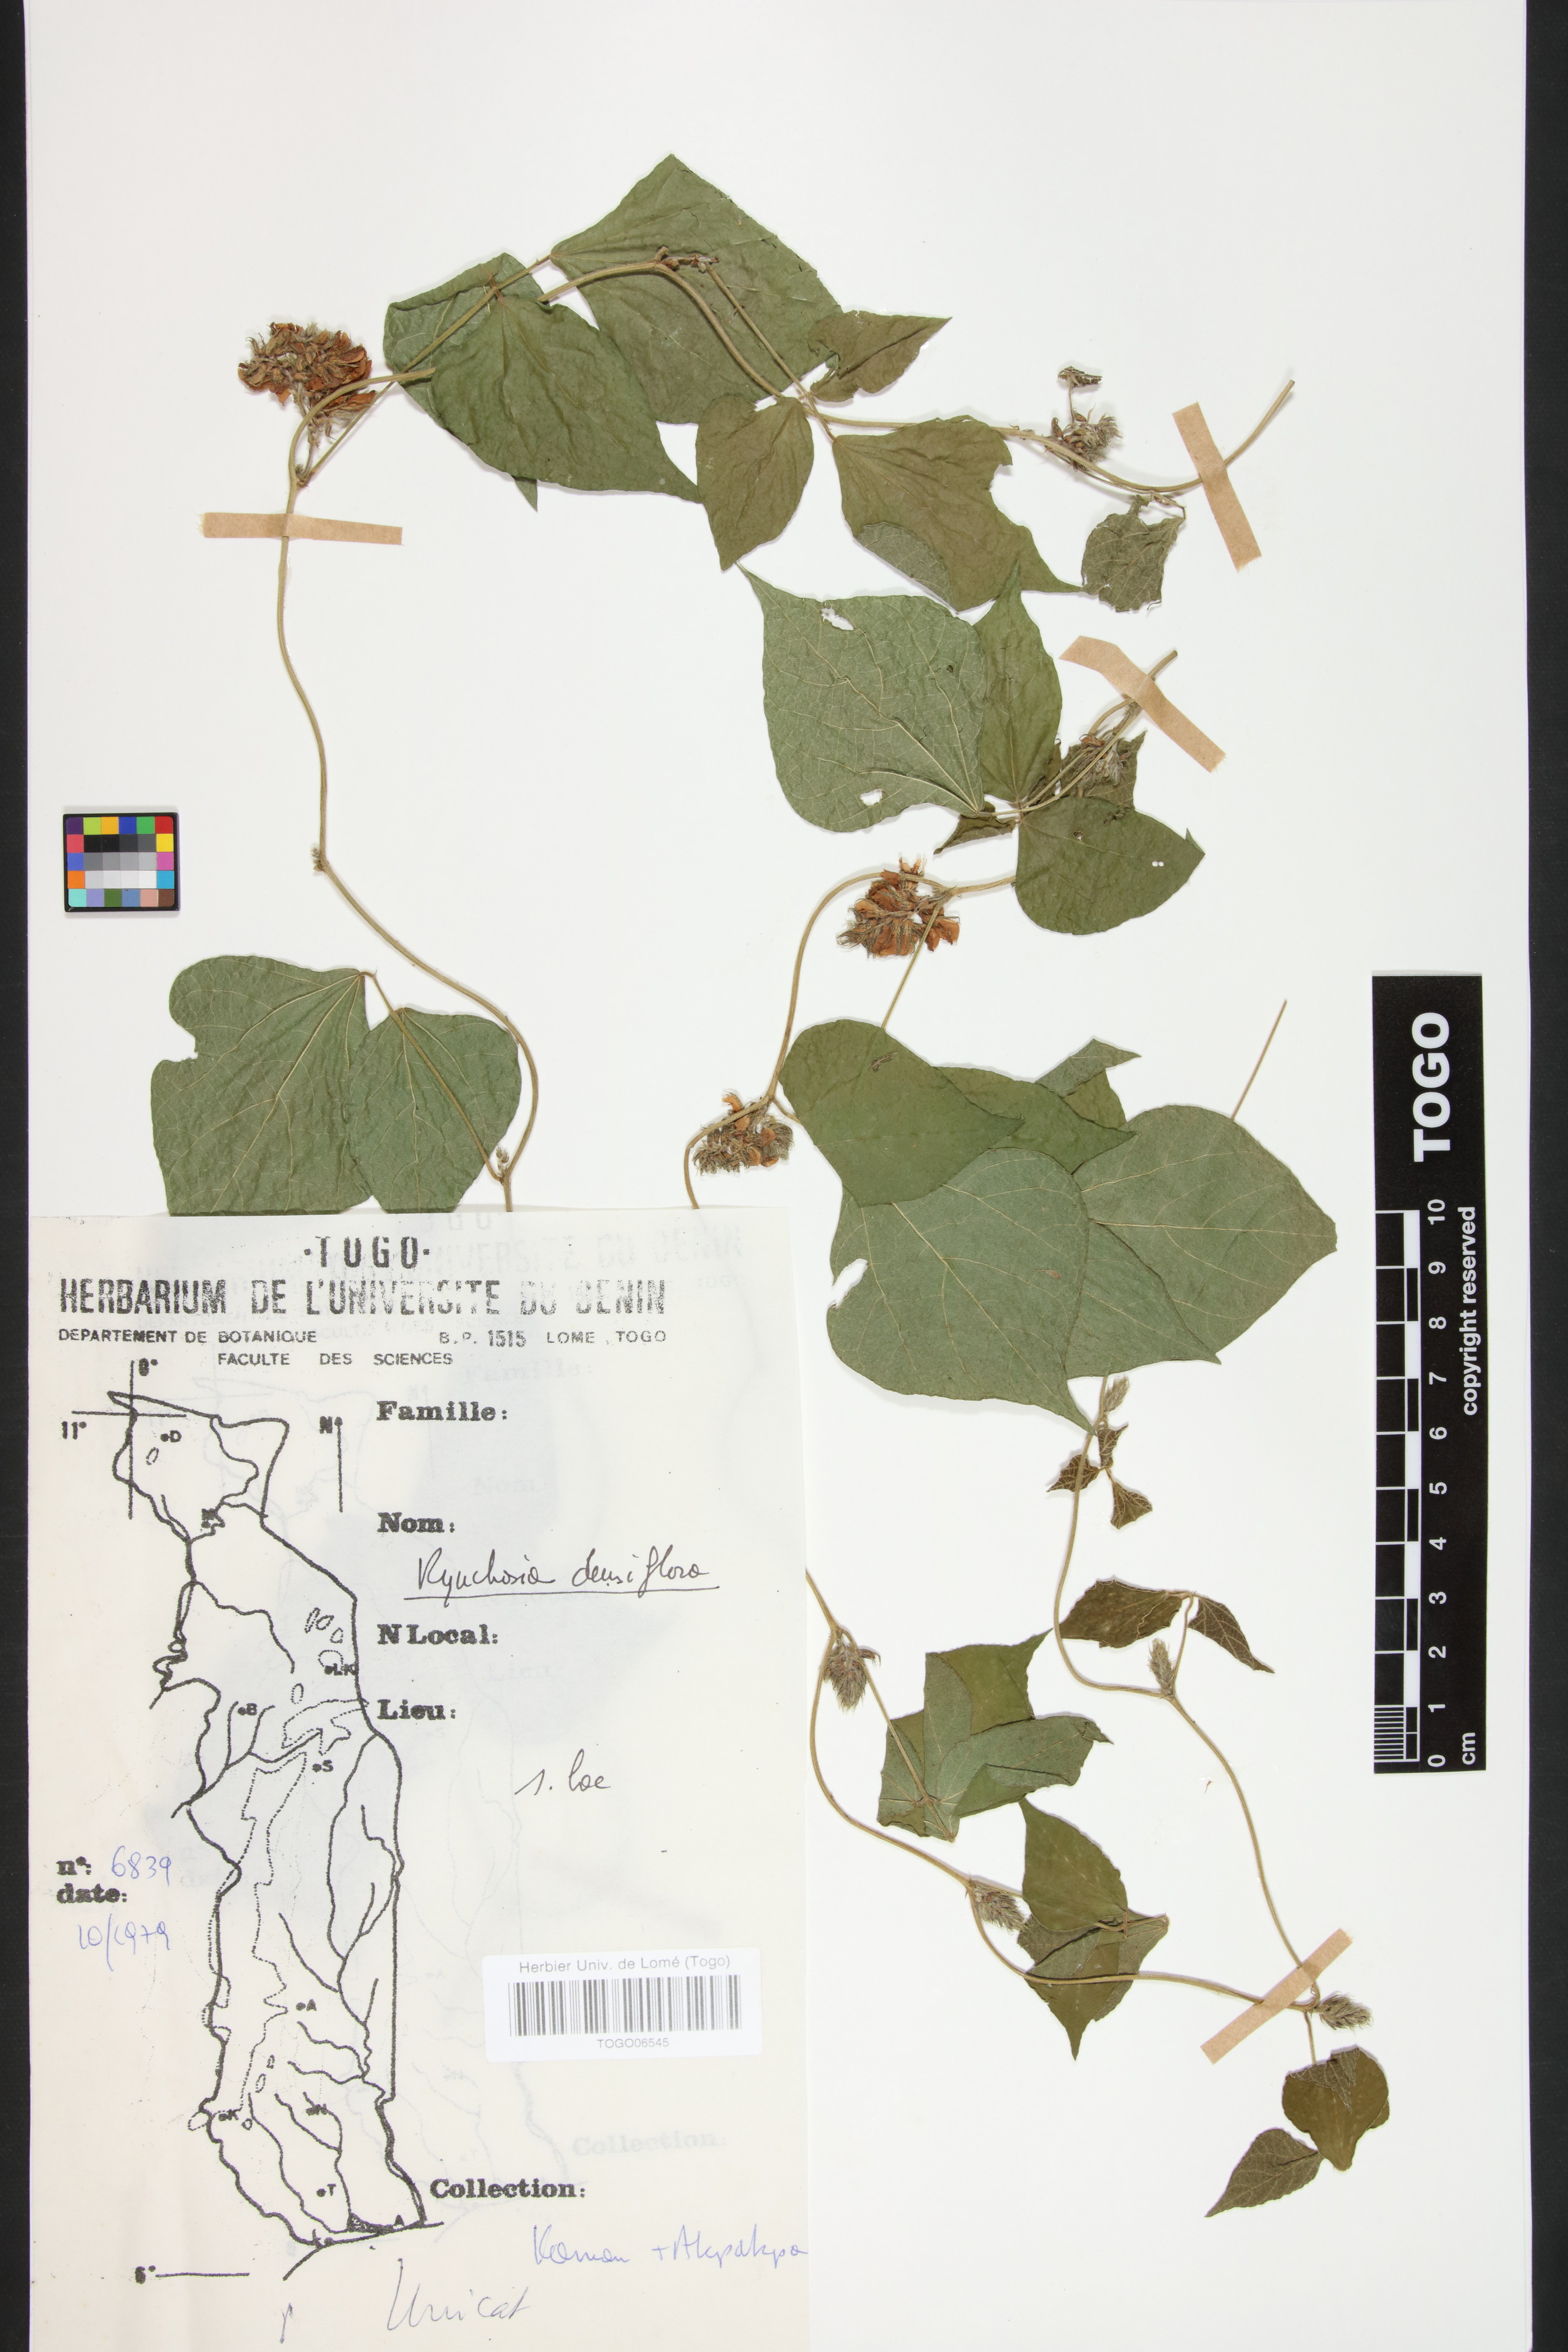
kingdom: Plantae
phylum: Tracheophyta
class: Magnoliopsida
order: Fabales
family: Fabaceae
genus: Rhynchosia
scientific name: Rhynchosia densiflora
